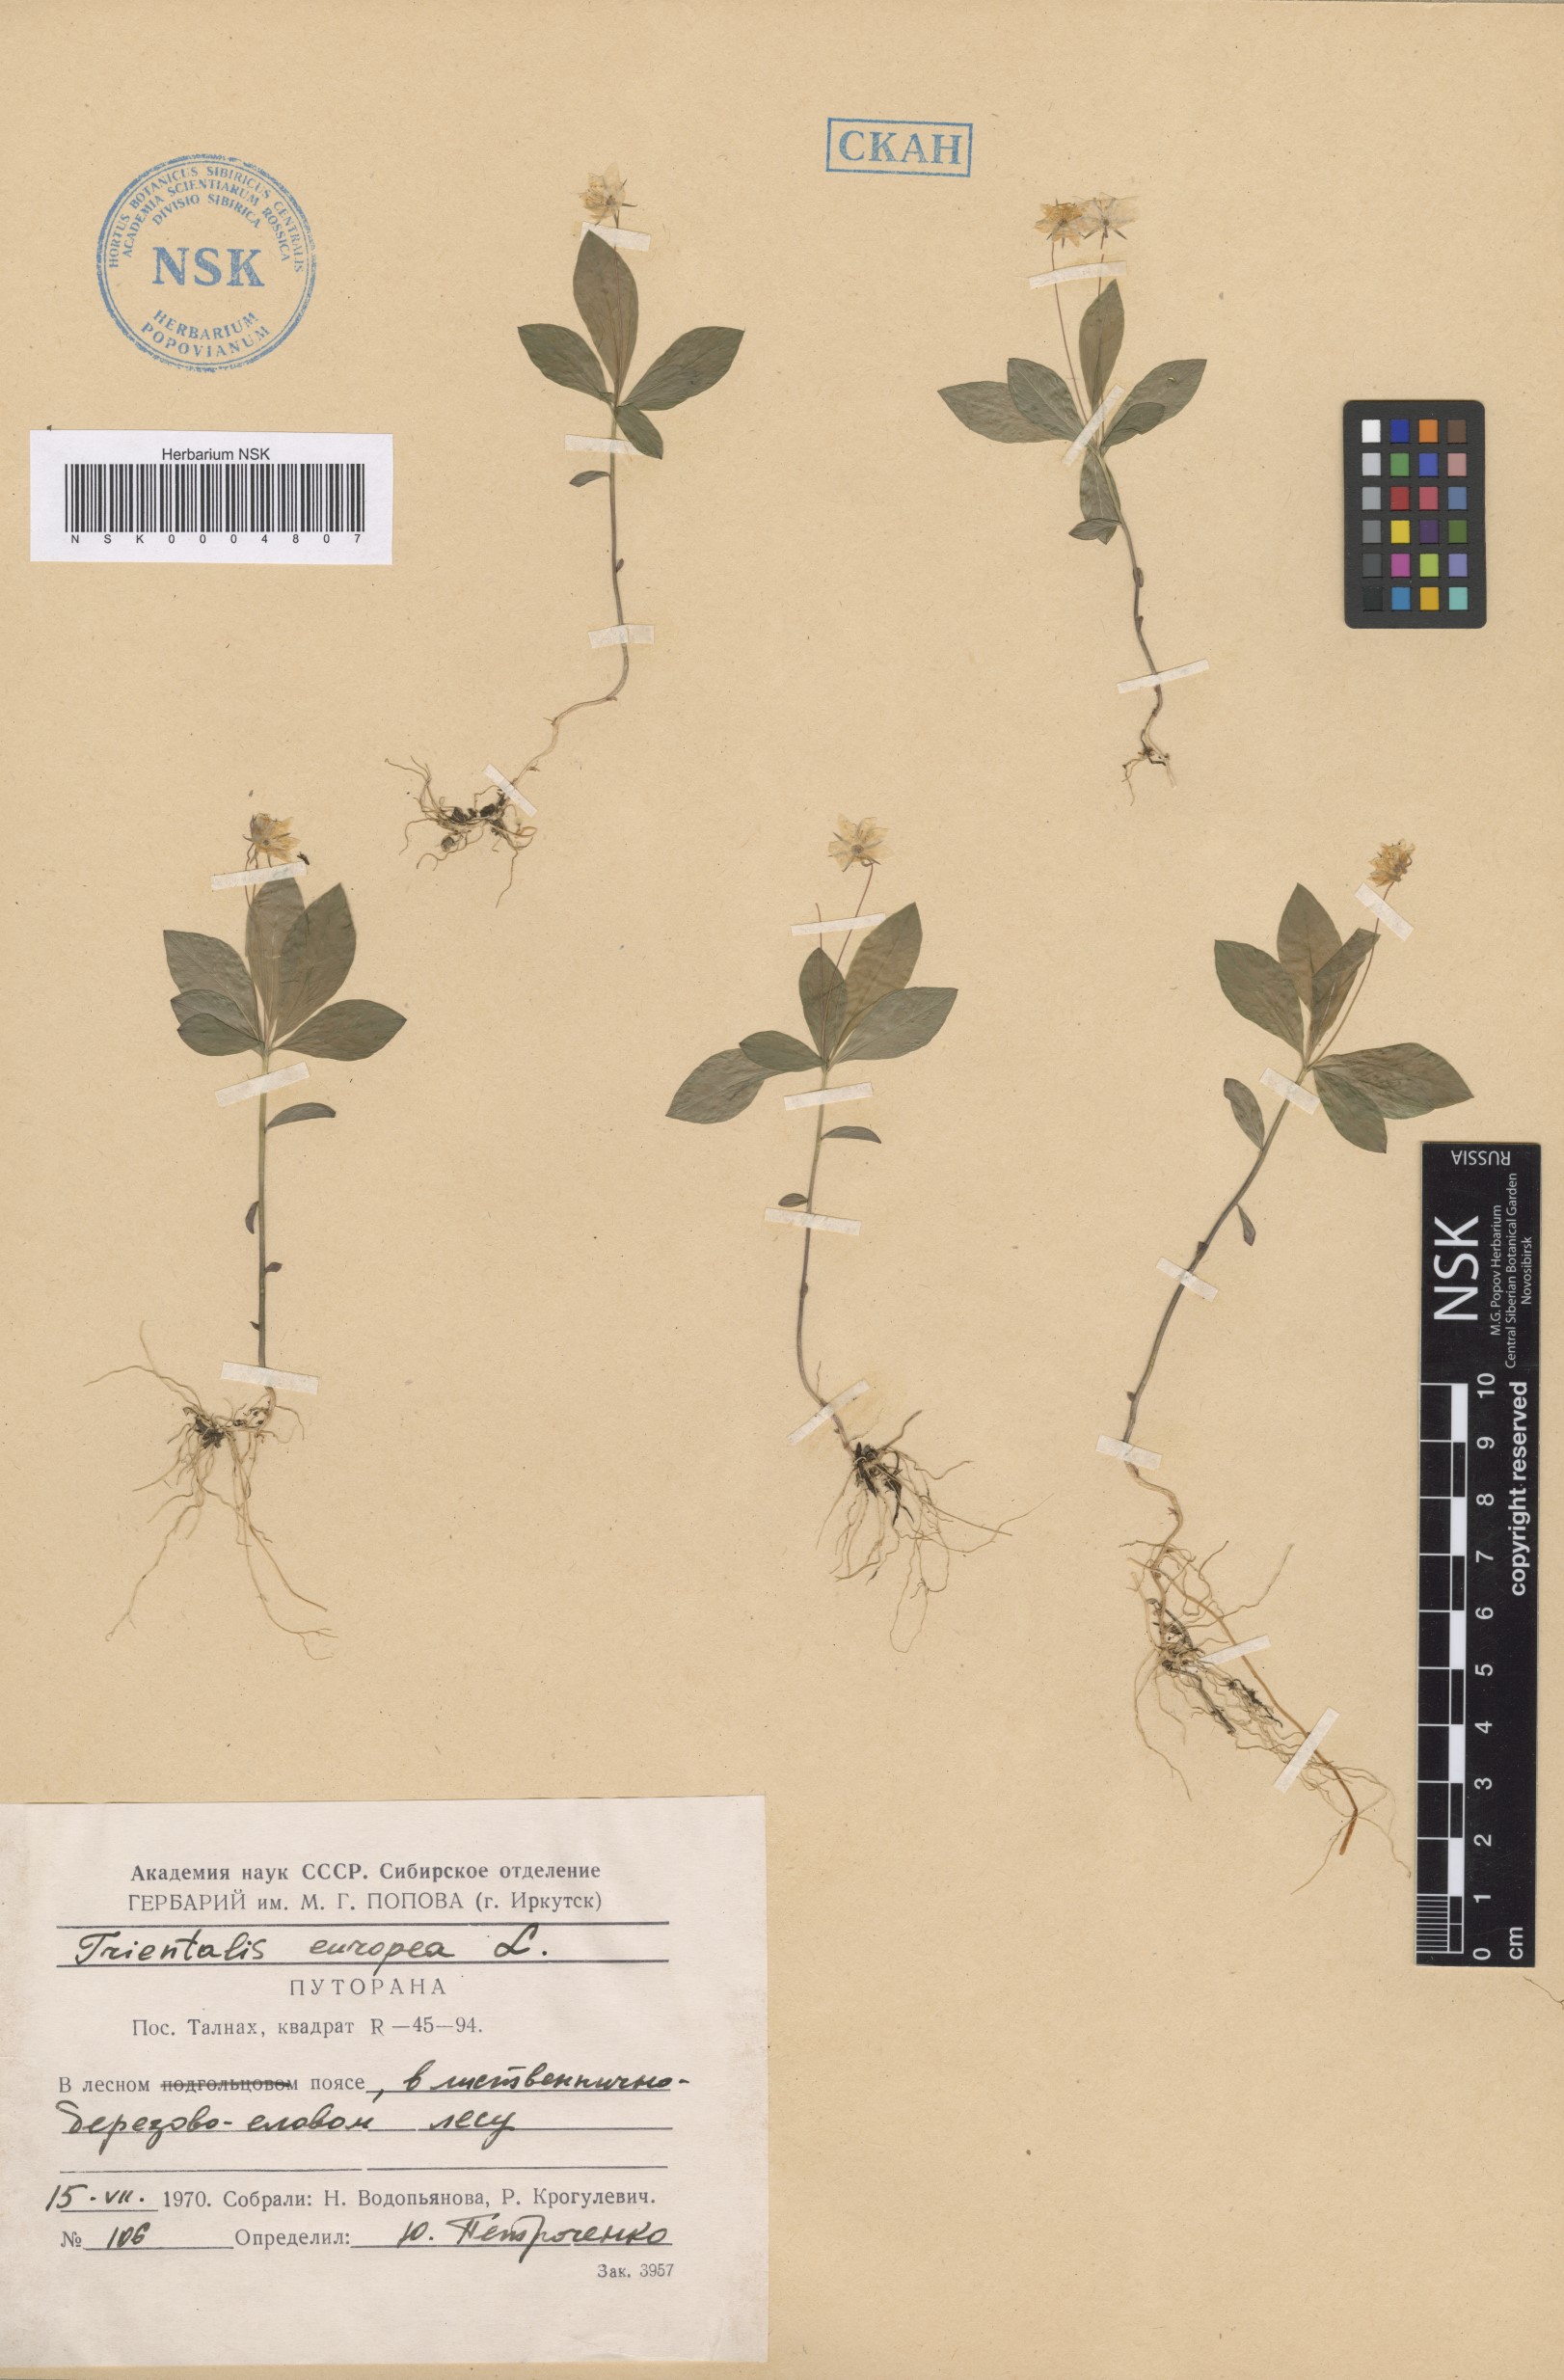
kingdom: Plantae
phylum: Tracheophyta
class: Magnoliopsida
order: Ericales
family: Primulaceae
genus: Lysimachia
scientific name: Lysimachia europaea
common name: Arctic starflower
